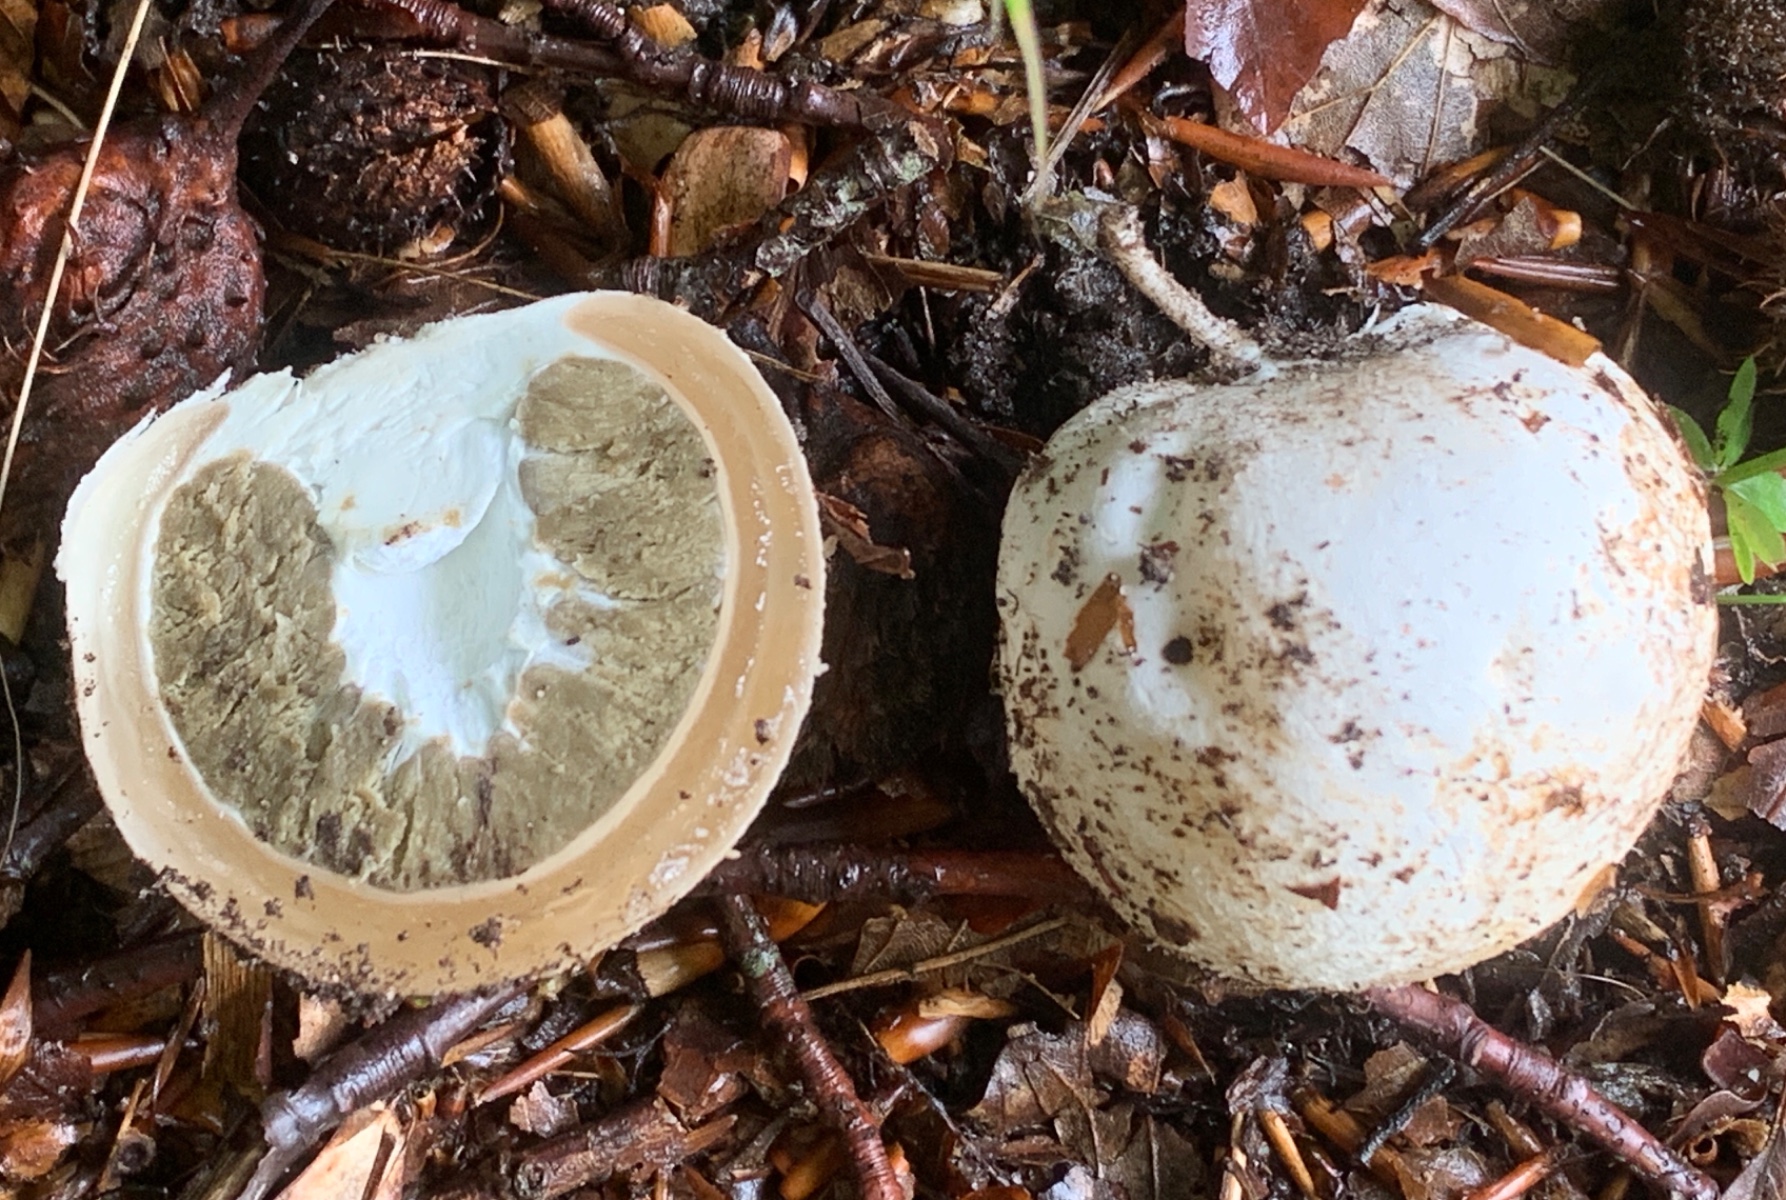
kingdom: Fungi
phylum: Basidiomycota
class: Agaricomycetes
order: Phallales
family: Phallaceae
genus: Phallus
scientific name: Phallus impudicus
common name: almindelig stinksvamp
